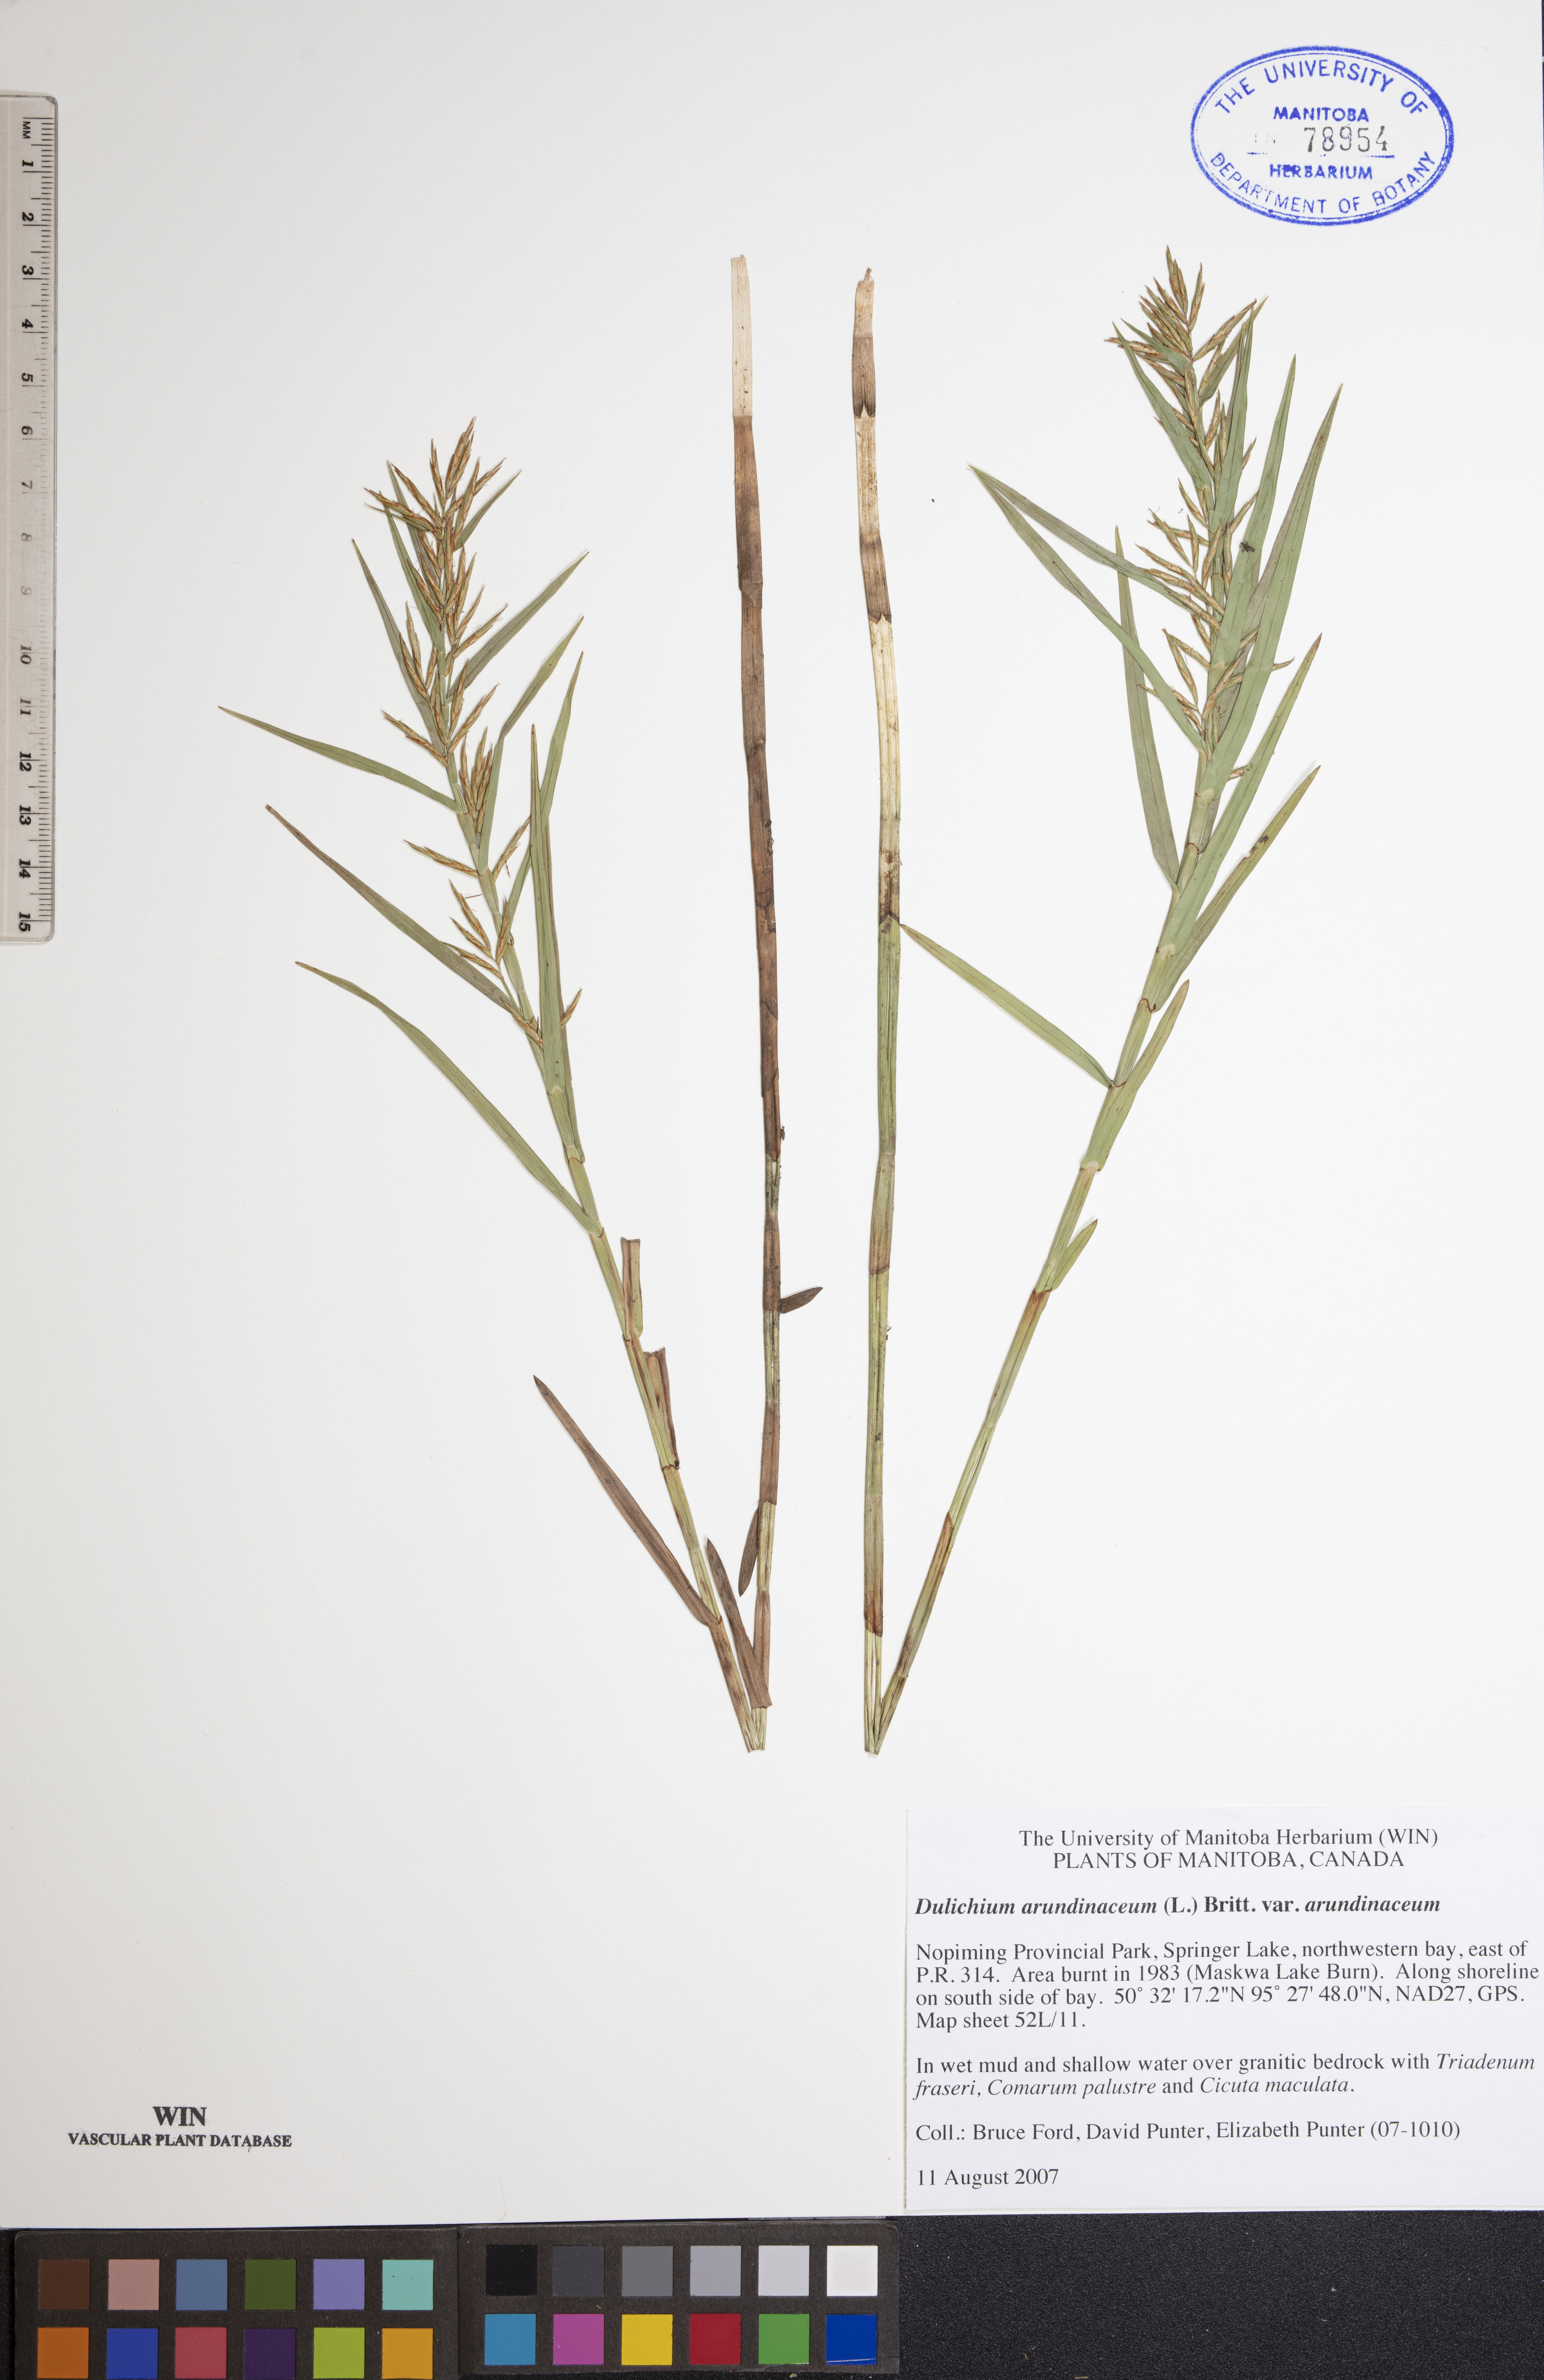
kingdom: Plantae
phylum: Tracheophyta
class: Liliopsida
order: Poales
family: Cyperaceae
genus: Dulichium
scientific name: Dulichium arundinaceum
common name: Three-way sedge
